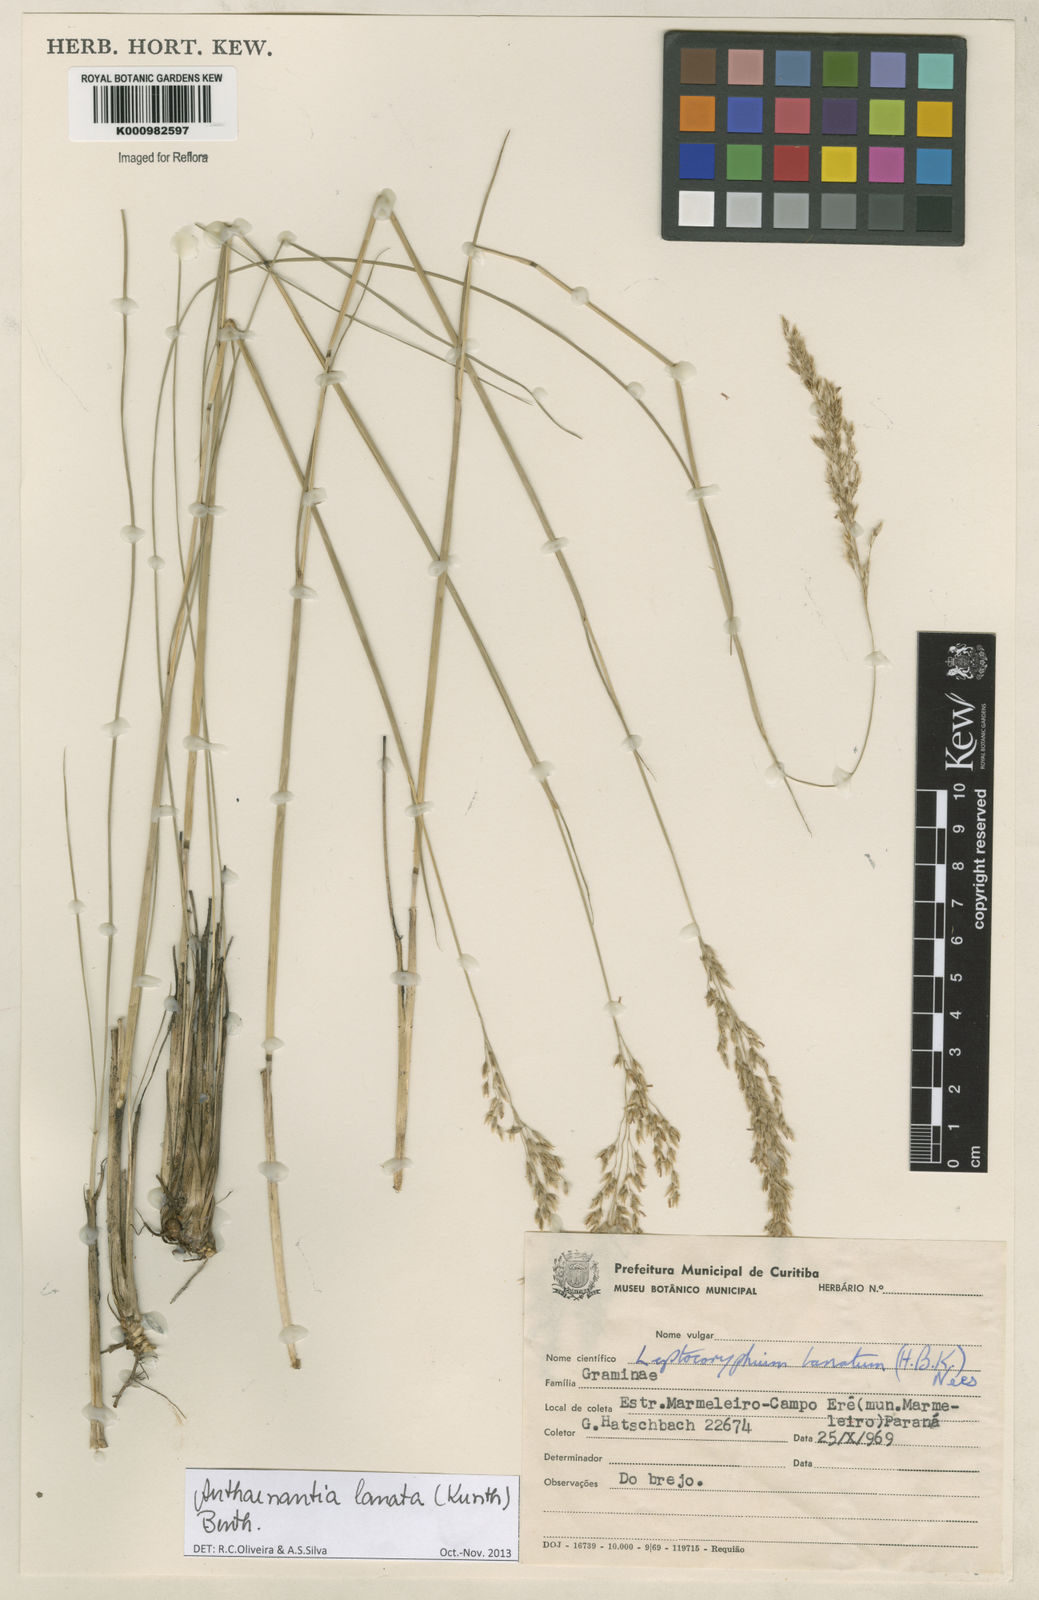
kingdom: Plantae
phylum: Tracheophyta
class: Liliopsida
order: Poales
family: Poaceae
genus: Anthenantia
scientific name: Anthenantia lanata
